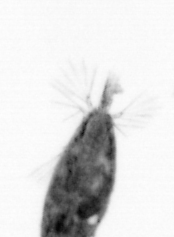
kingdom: Animalia
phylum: Arthropoda
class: Maxillopoda
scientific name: Maxillopoda
